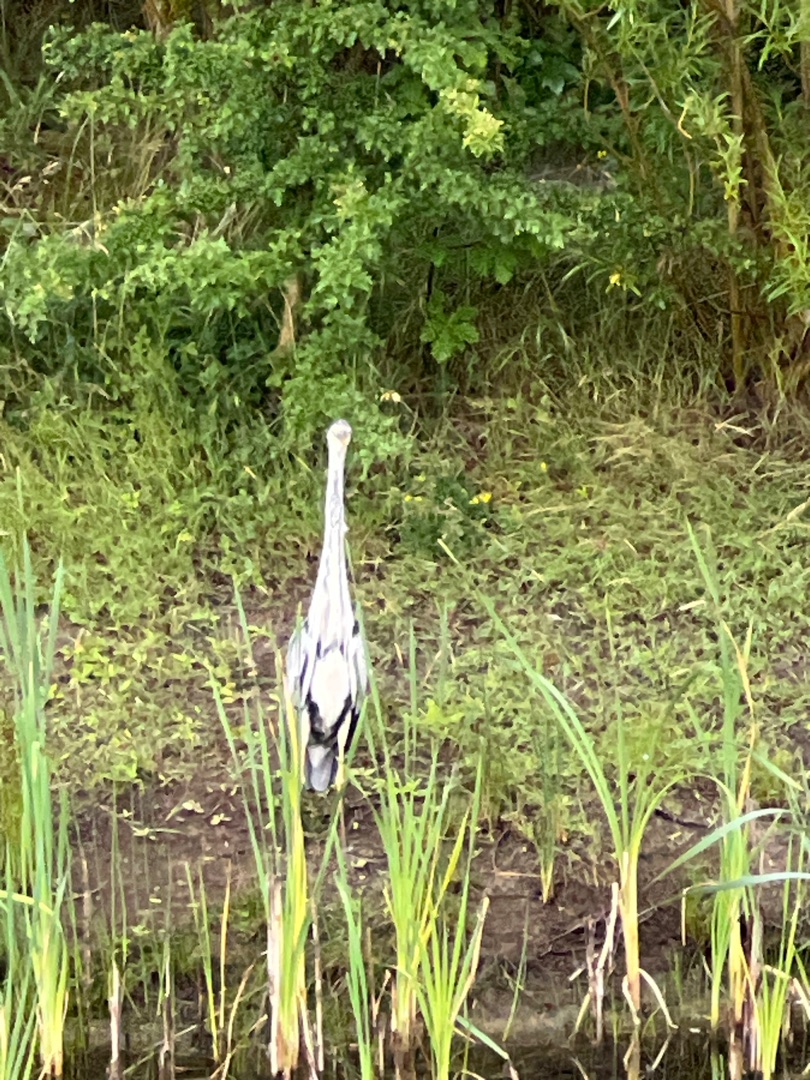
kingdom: Animalia
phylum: Chordata
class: Aves
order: Pelecaniformes
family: Ardeidae
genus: Ardea
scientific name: Ardea cinerea
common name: Fiskehejre
